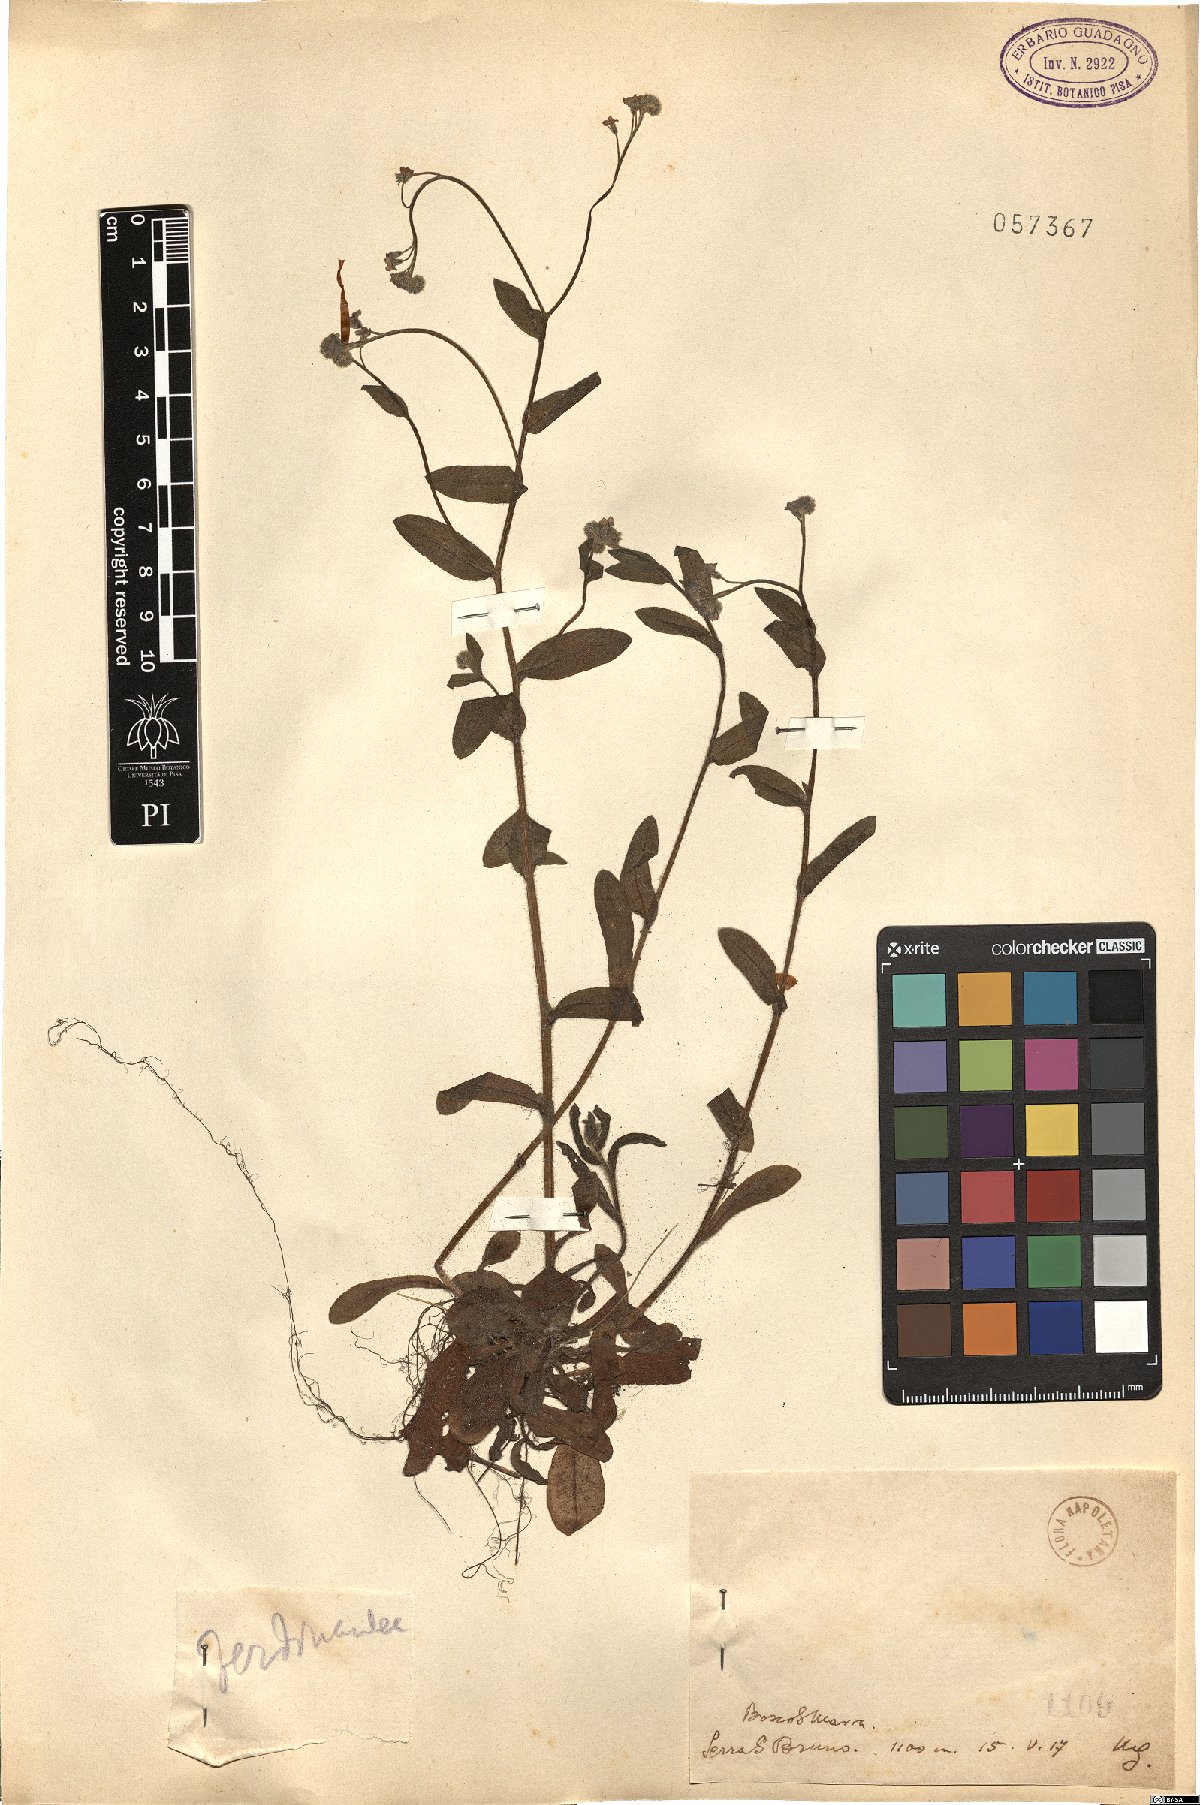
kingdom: Plantae
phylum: Tracheophyta
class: Magnoliopsida
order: Boraginales
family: Boraginaceae
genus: Myosotis
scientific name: Myosotis
